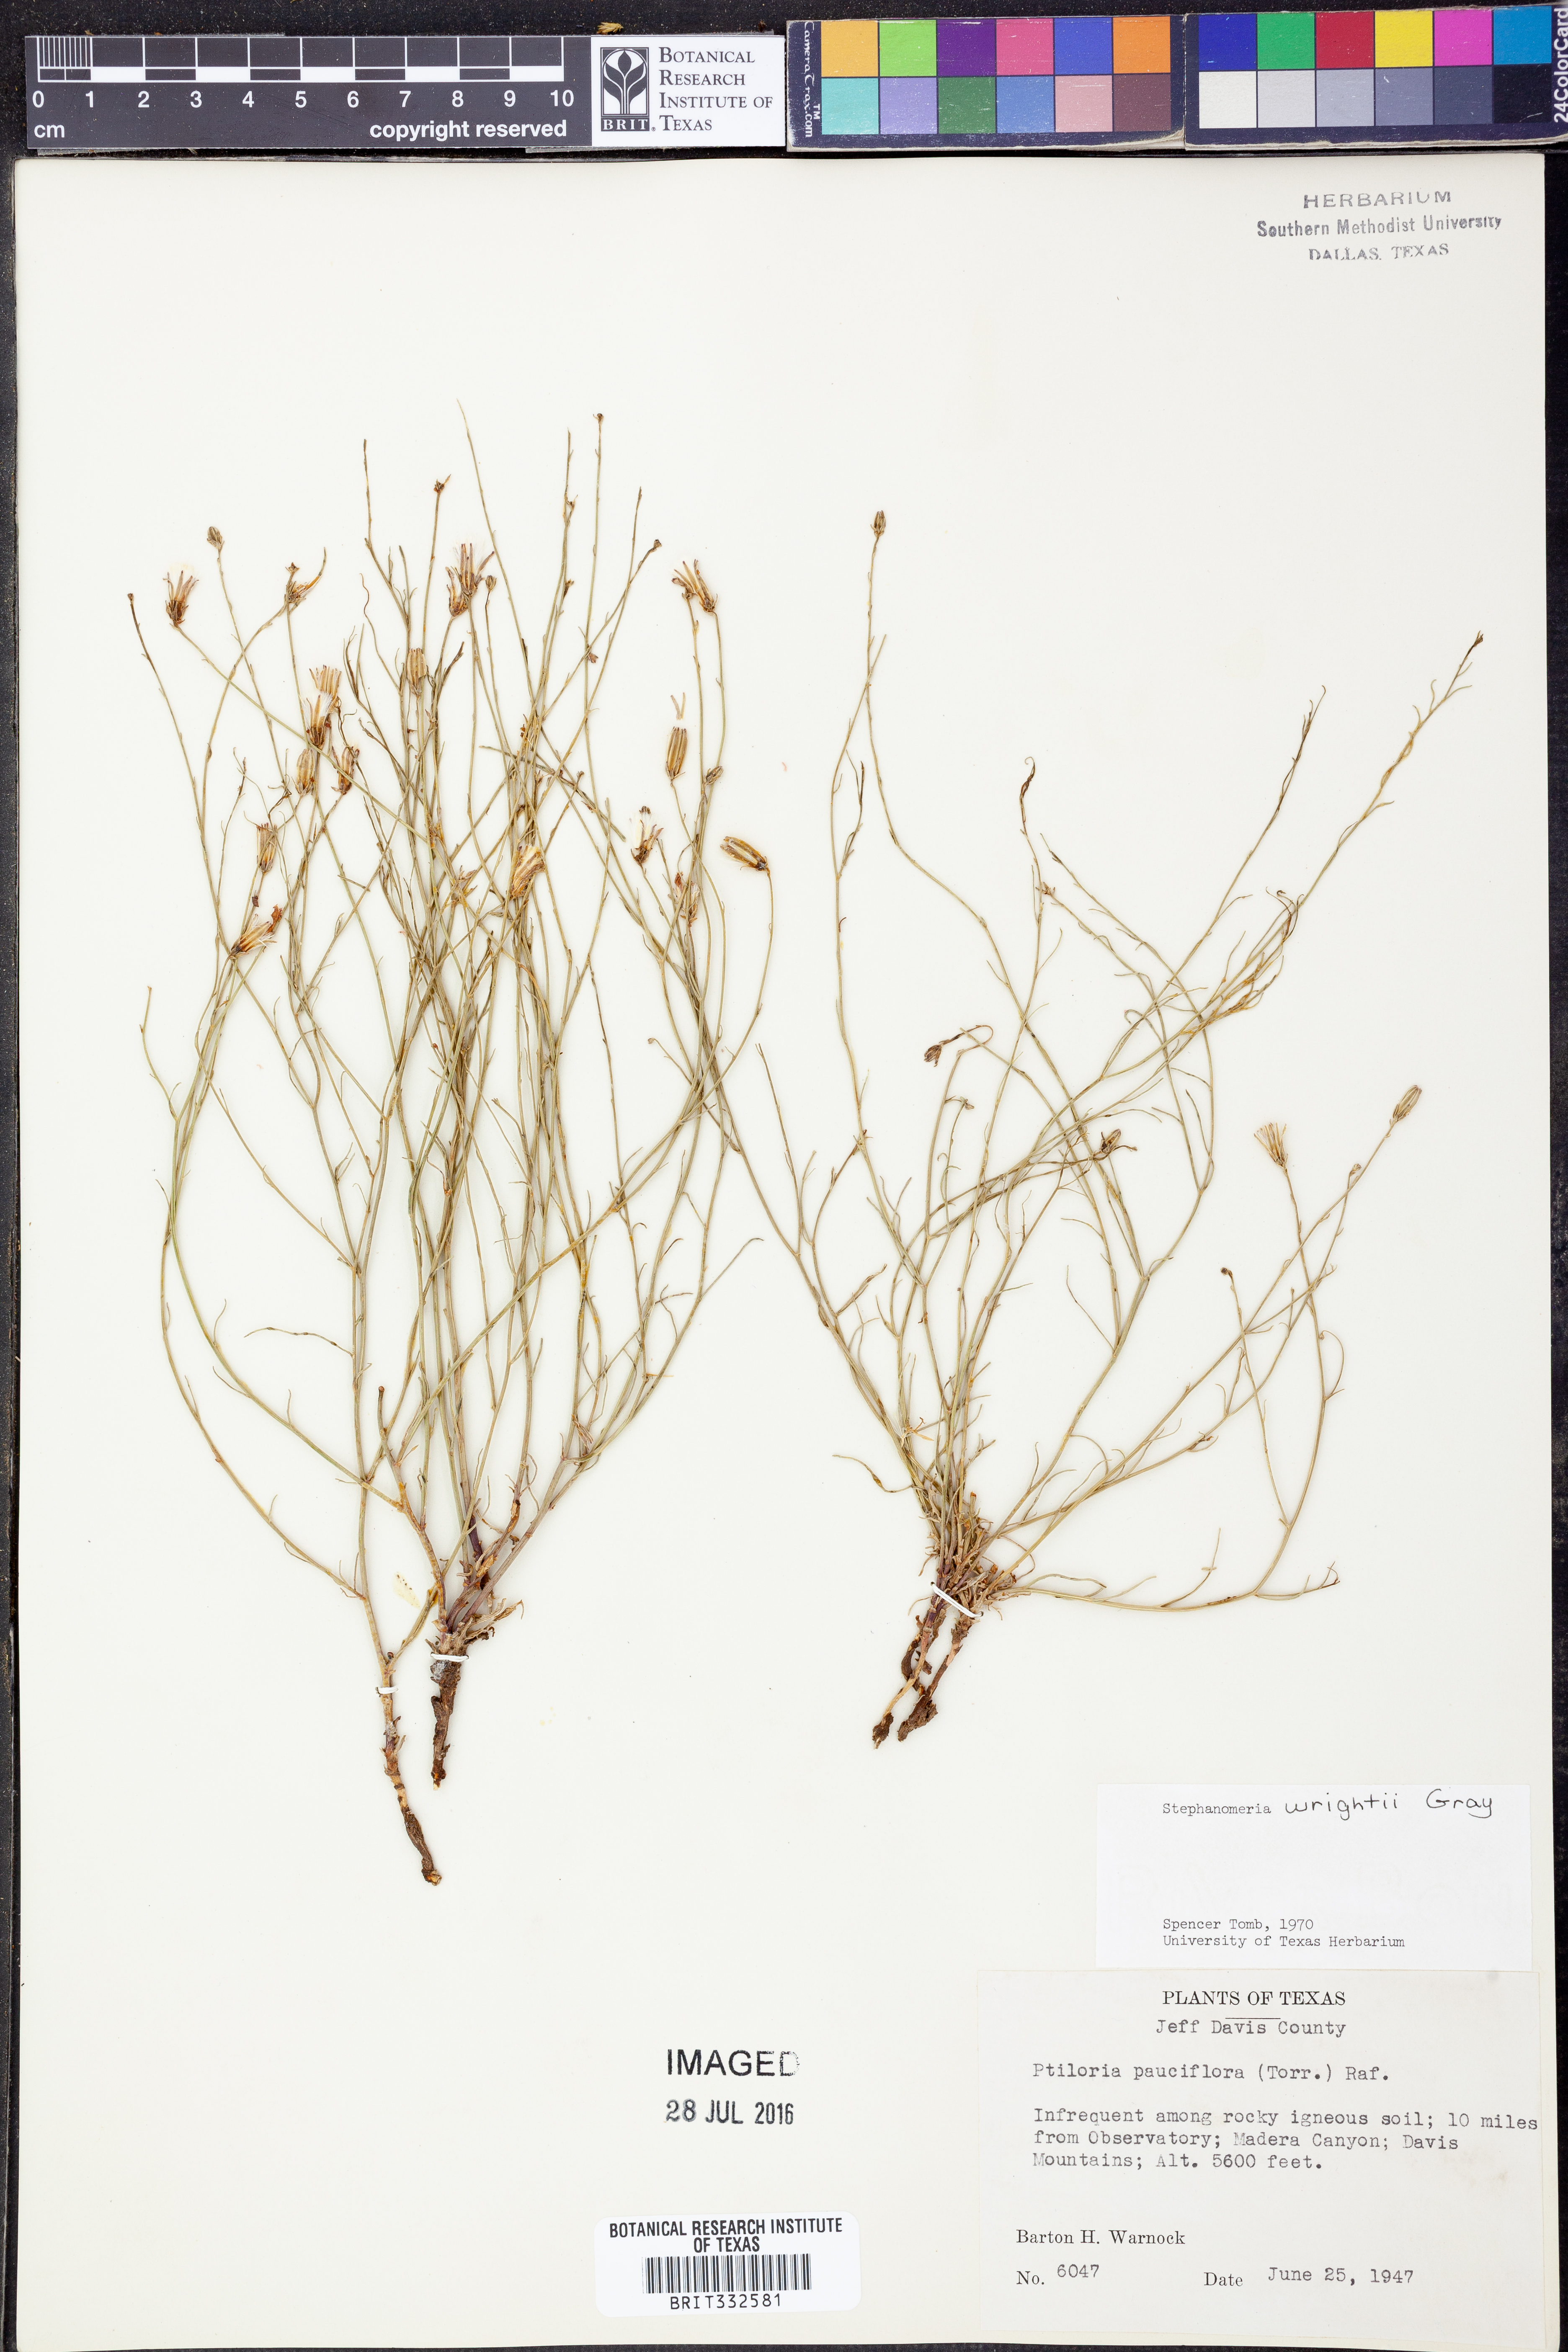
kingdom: Plantae
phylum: Tracheophyta
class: Magnoliopsida
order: Asterales
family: Asteraceae
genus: Stephanomeria
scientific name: Stephanomeria tenuifolia
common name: Slender wirelettuce
